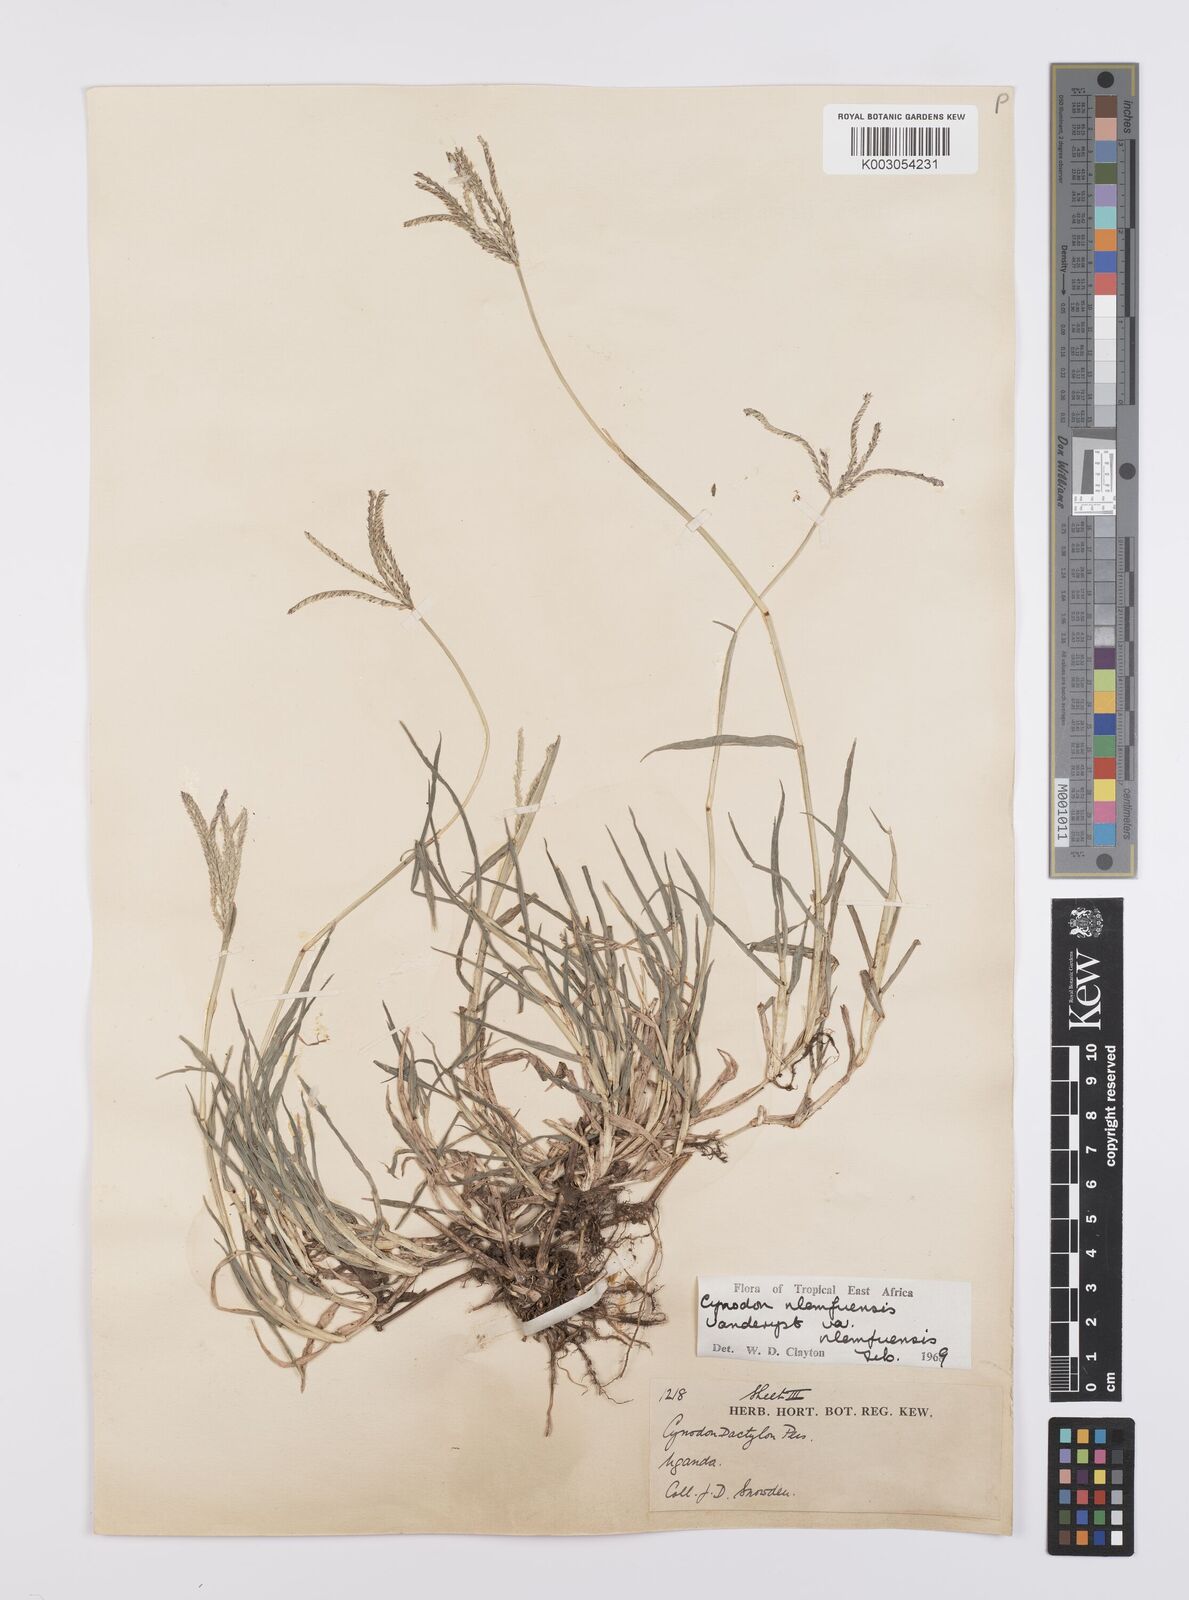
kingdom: Plantae
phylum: Tracheophyta
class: Liliopsida
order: Poales
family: Poaceae
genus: Cynodon
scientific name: Cynodon nlemfuensis
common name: African bermudagrass
